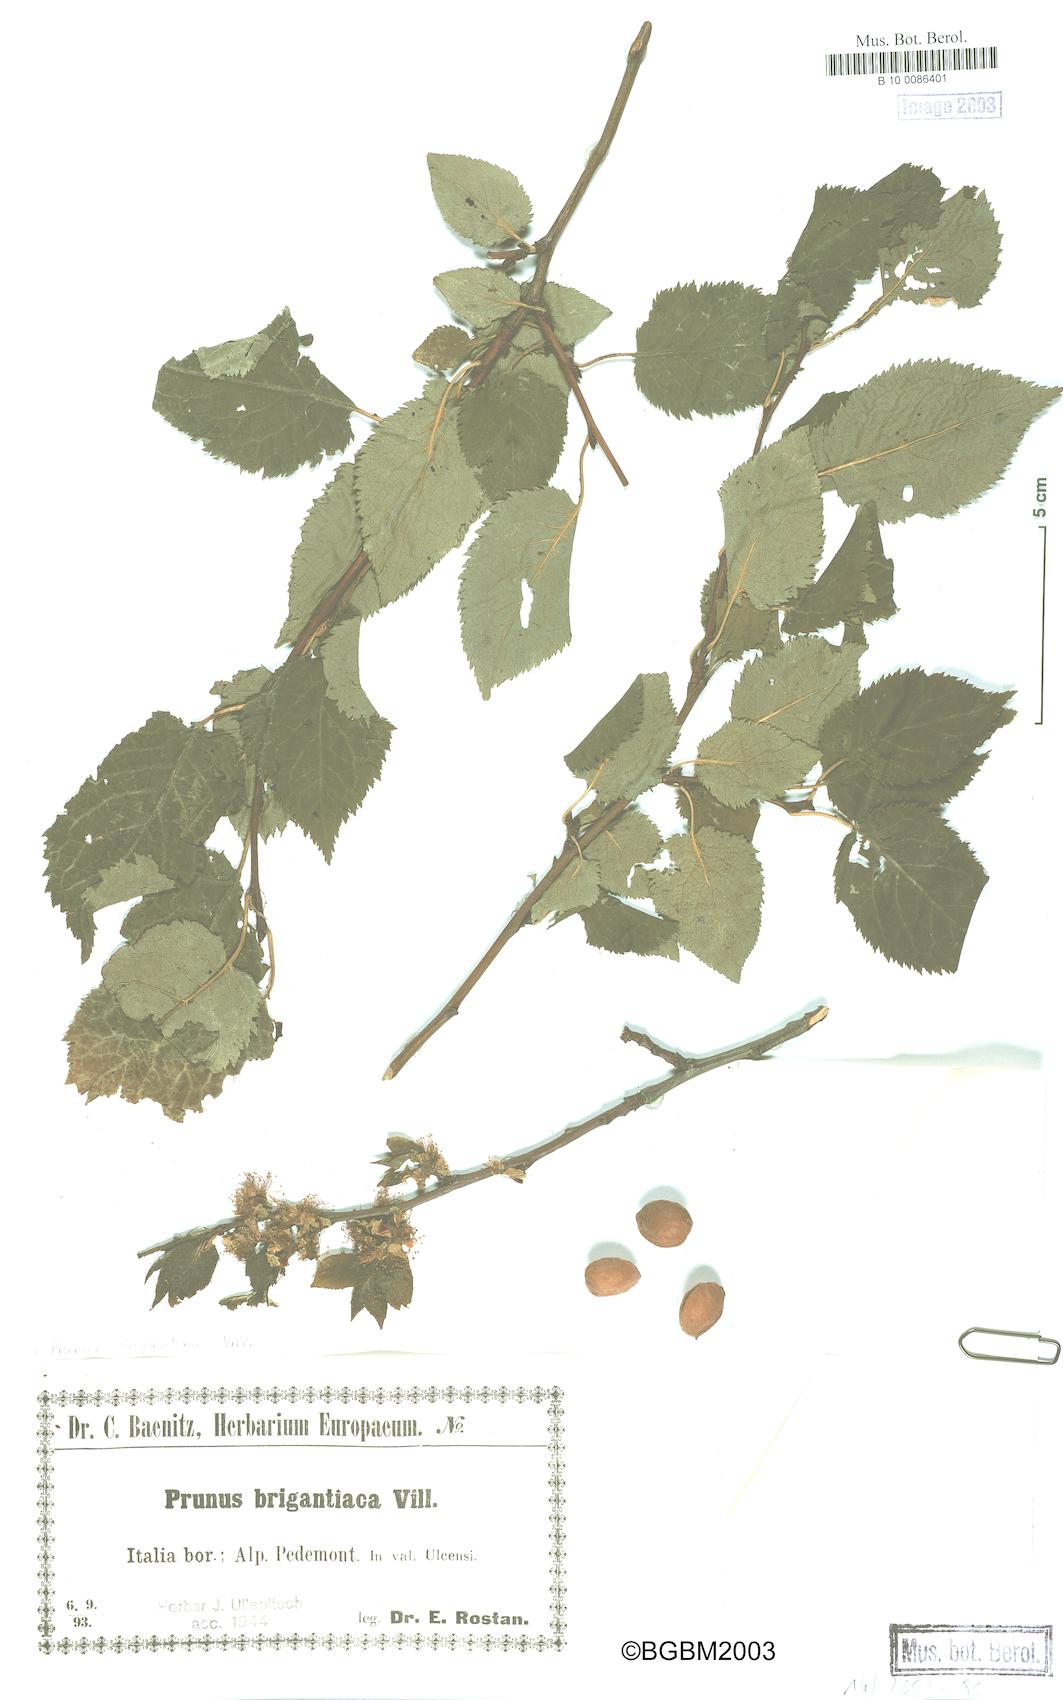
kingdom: Plantae
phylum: Tracheophyta
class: Magnoliopsida
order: Rosales
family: Rosaceae
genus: Prunus
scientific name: Prunus brigantina
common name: Briançon apricot
